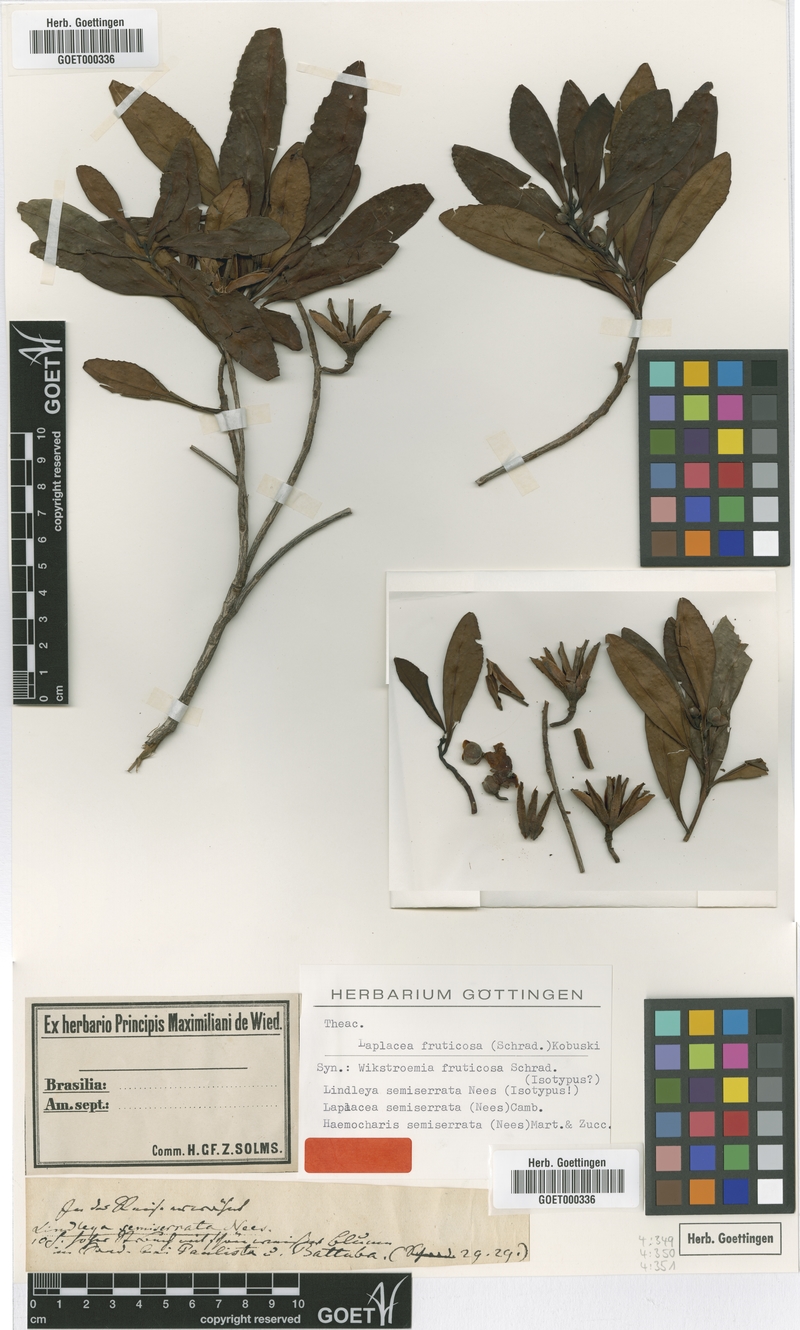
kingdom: Plantae
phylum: Tracheophyta
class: Magnoliopsida
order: Ericales
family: Theaceae
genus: Gordonia
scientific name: Gordonia fruticosa
